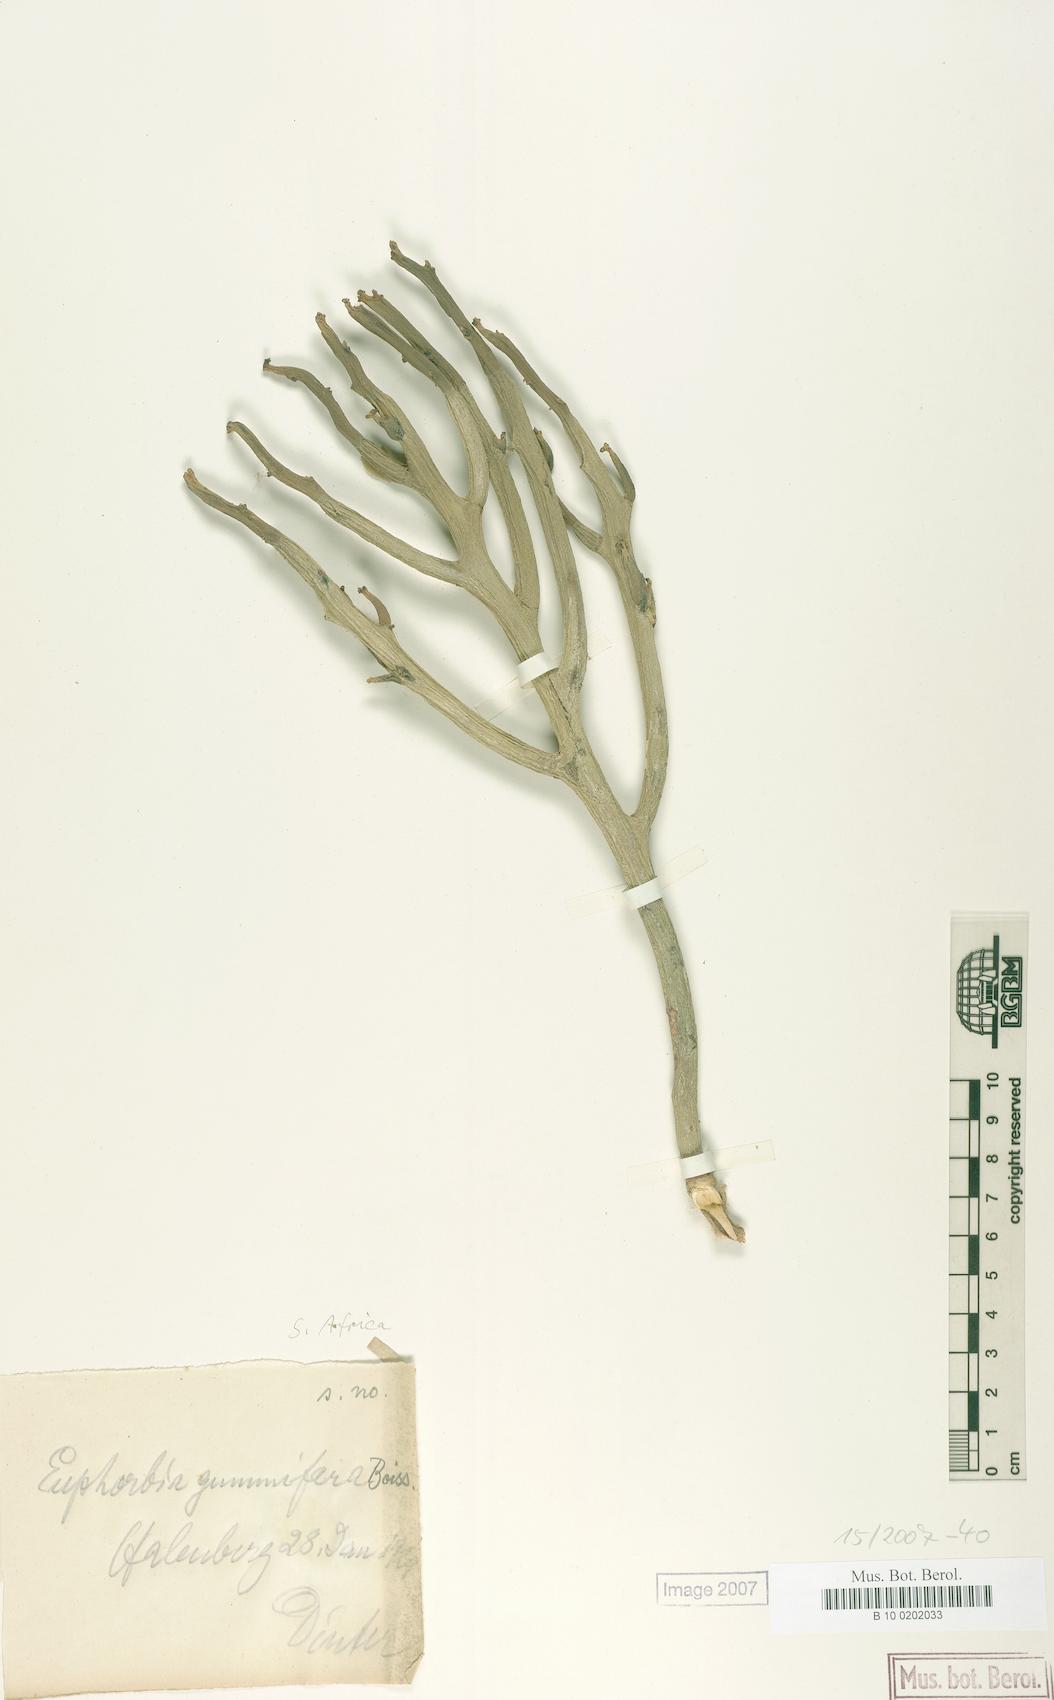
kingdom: Plantae
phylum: Tracheophyta
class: Magnoliopsida
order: Malpighiales
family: Euphorbiaceae
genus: Euphorbia
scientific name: Euphorbia gummifera
